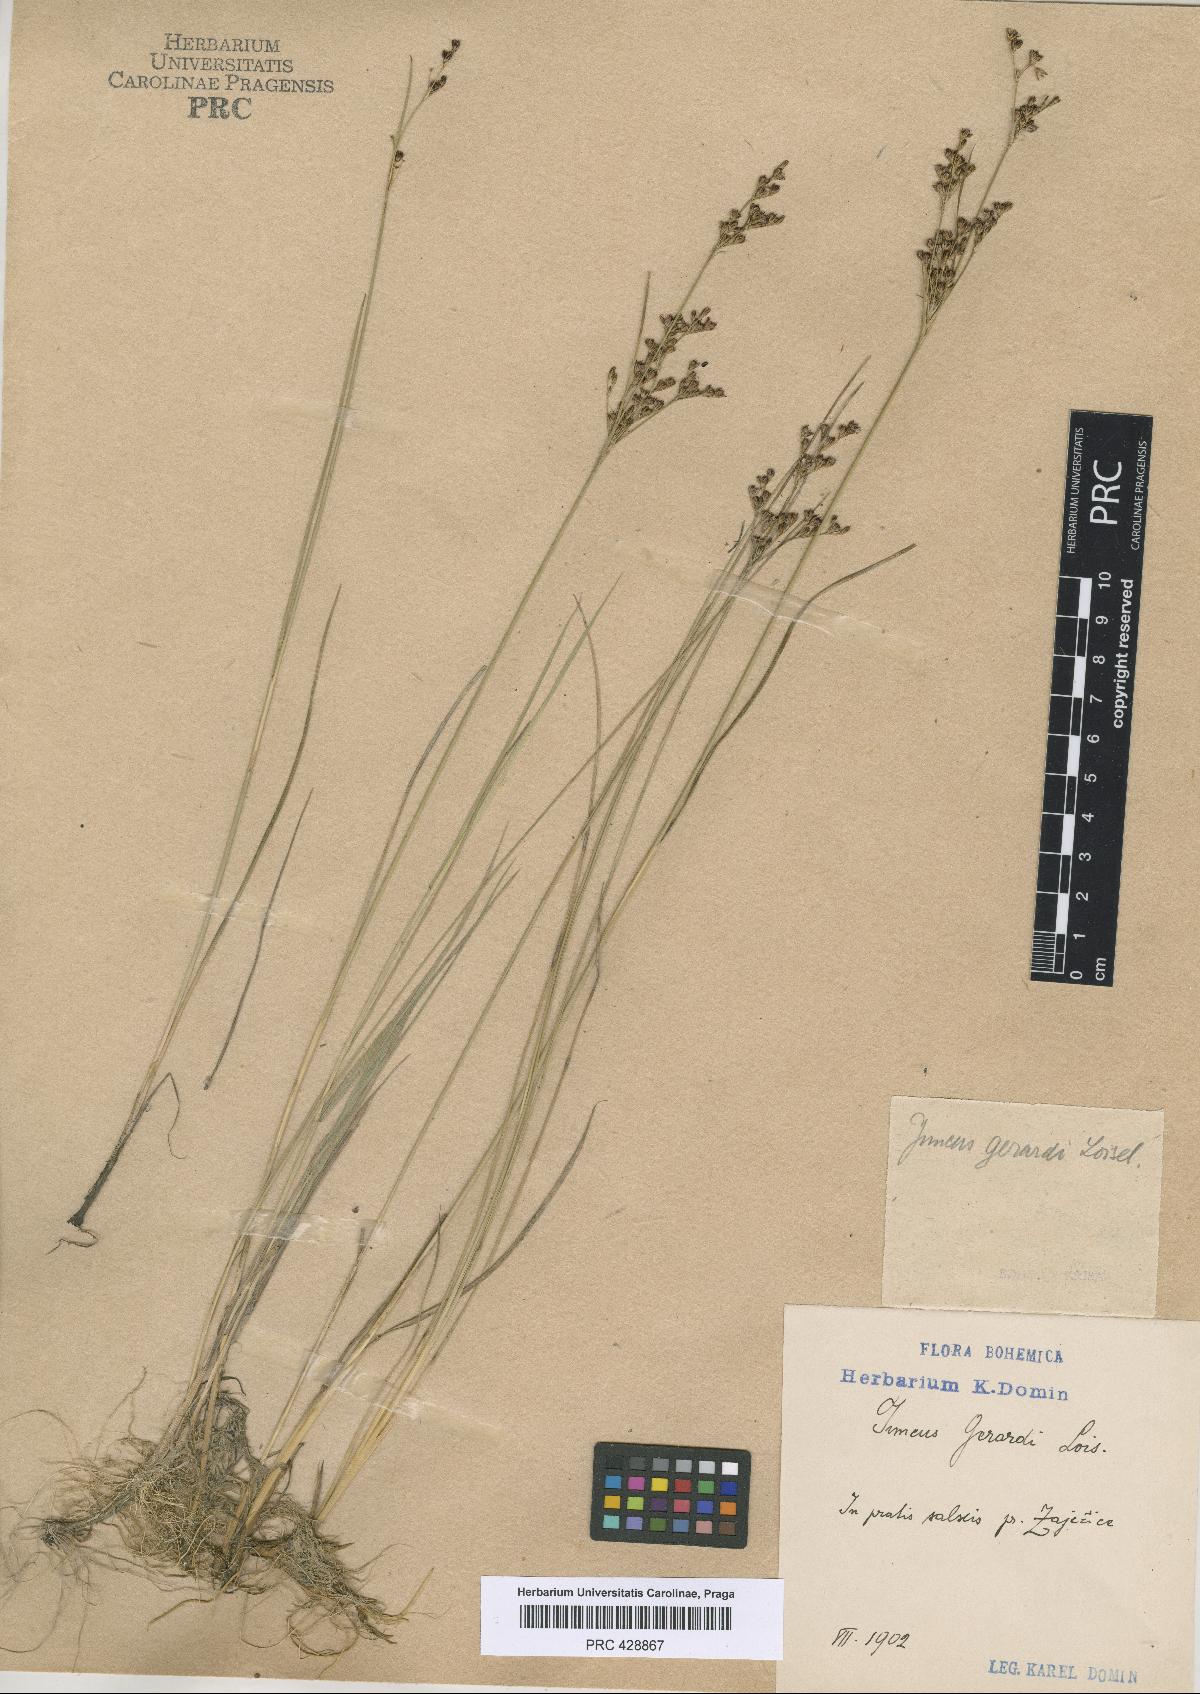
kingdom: Plantae
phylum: Tracheophyta
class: Liliopsida
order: Poales
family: Juncaceae
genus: Juncus
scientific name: Juncus gerardi
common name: Saltmarsh rush
